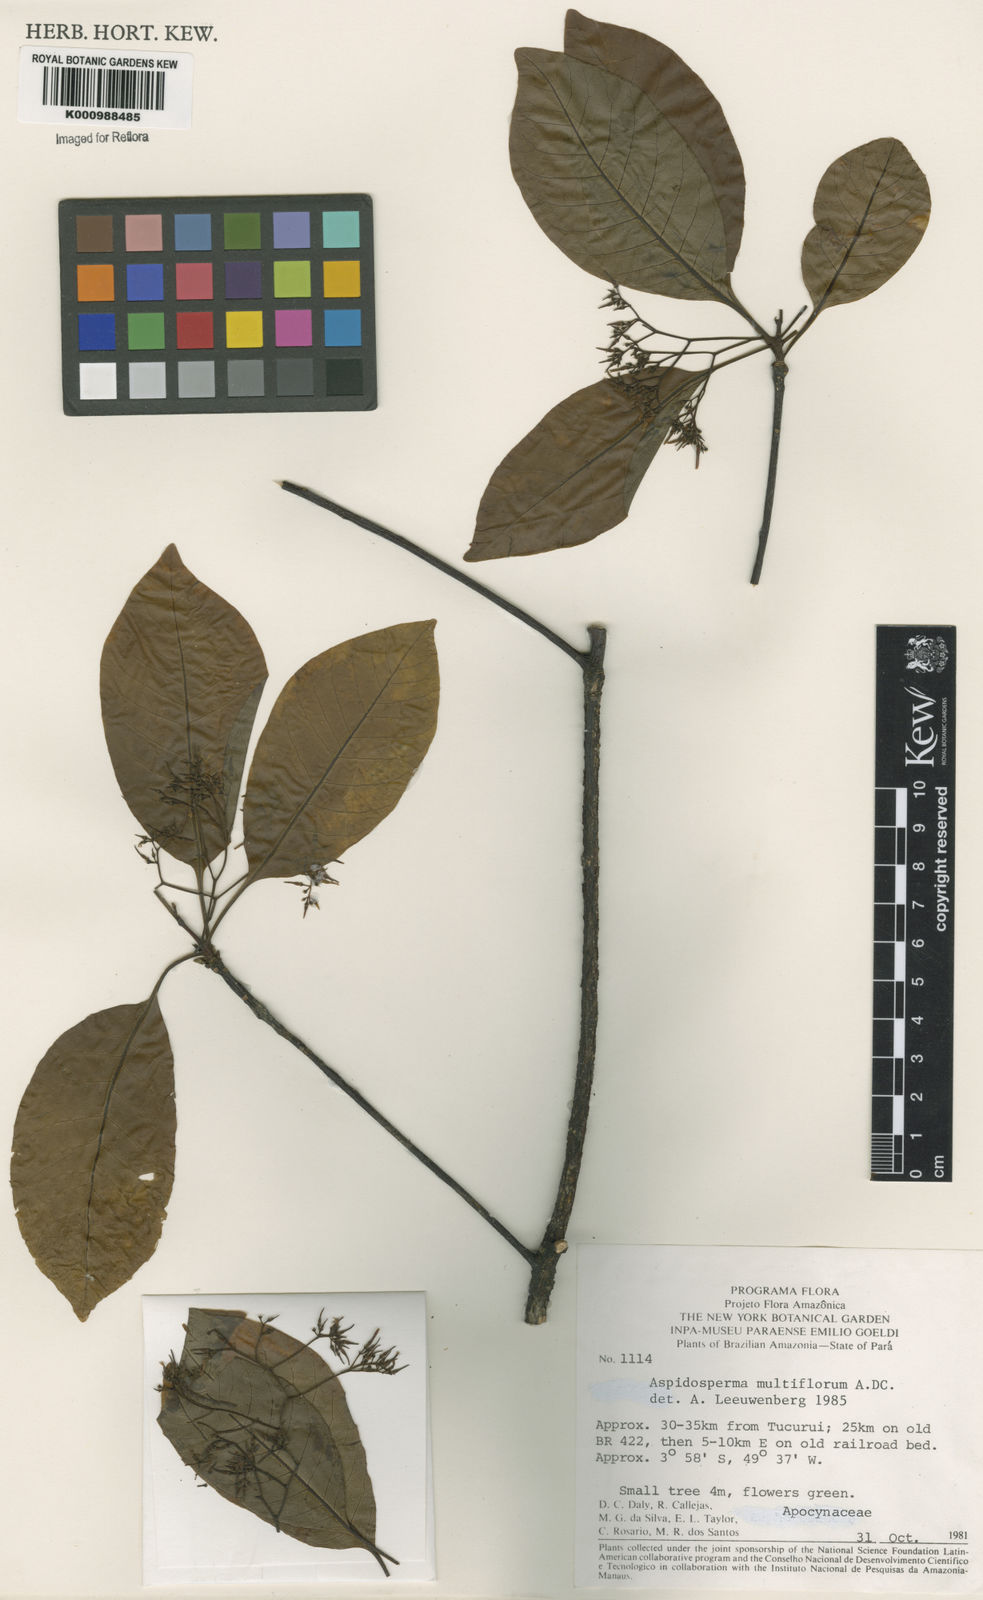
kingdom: Plantae
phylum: Tracheophyta
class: Magnoliopsida
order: Gentianales
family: Apocynaceae
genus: Aspidosperma
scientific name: Aspidosperma multiflorum
